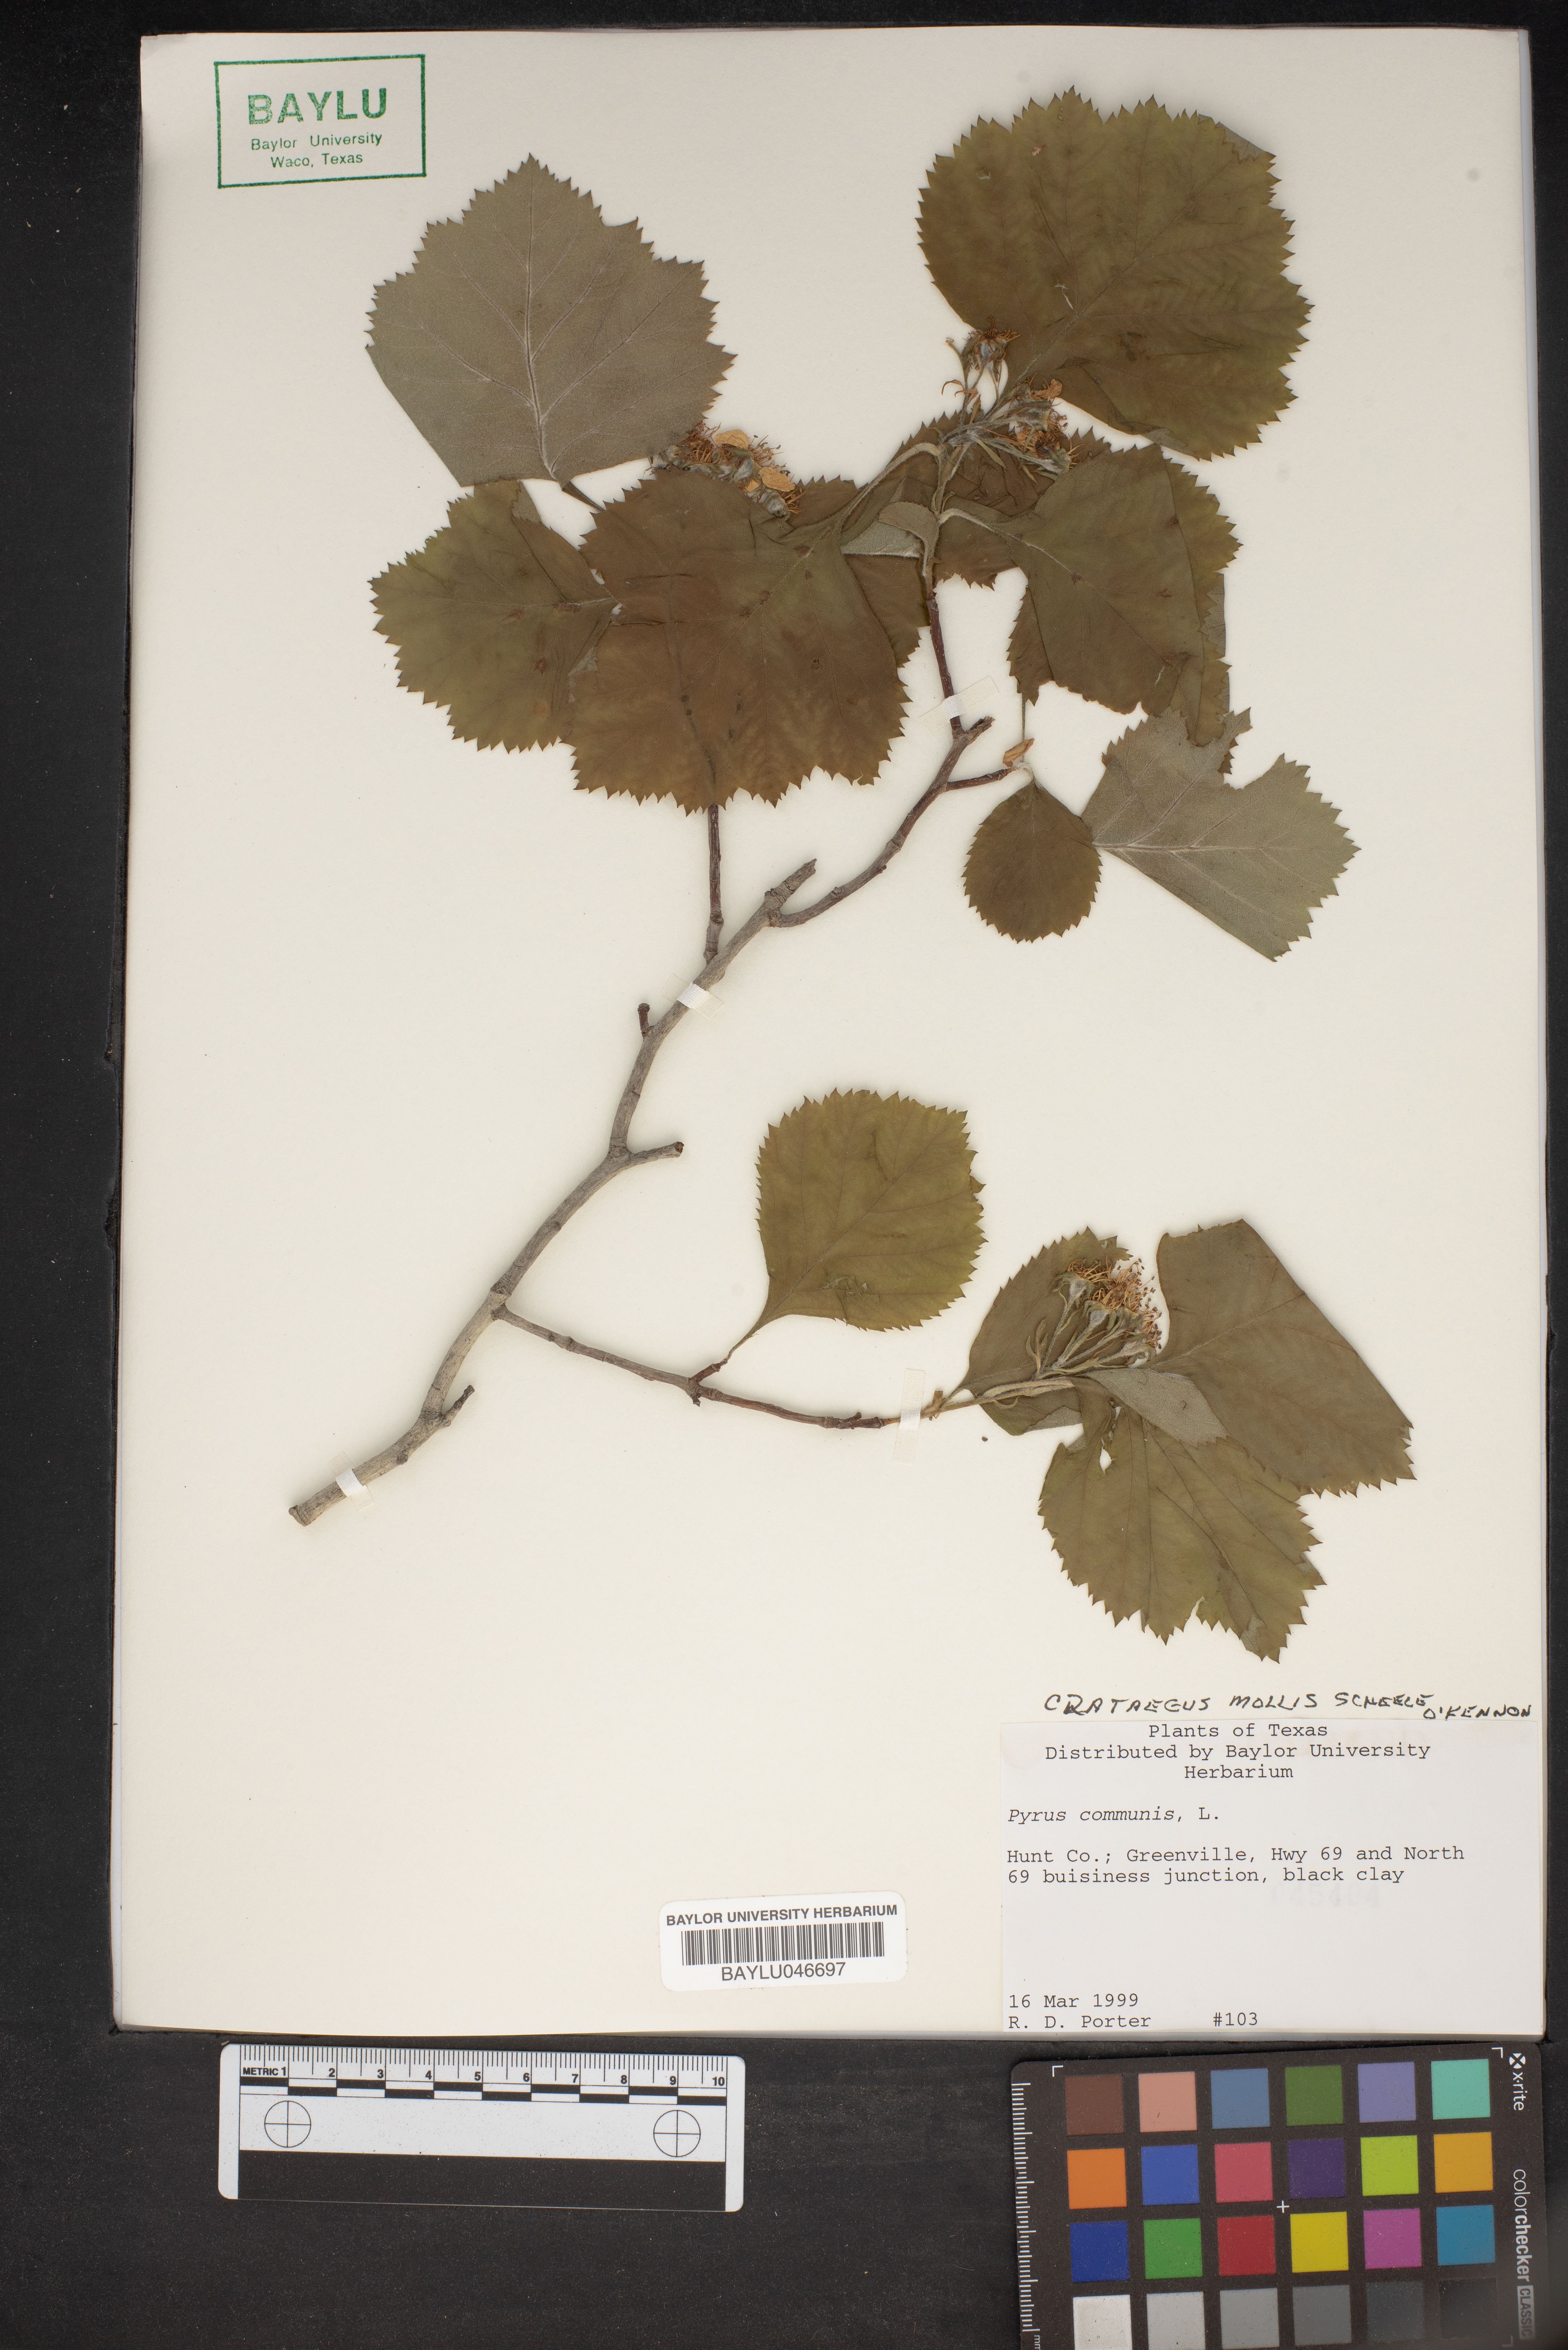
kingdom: Plantae
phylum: Tracheophyta
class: Magnoliopsida
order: Rosales
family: Rosaceae
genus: Pyrus
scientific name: Pyrus communis
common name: Pear
